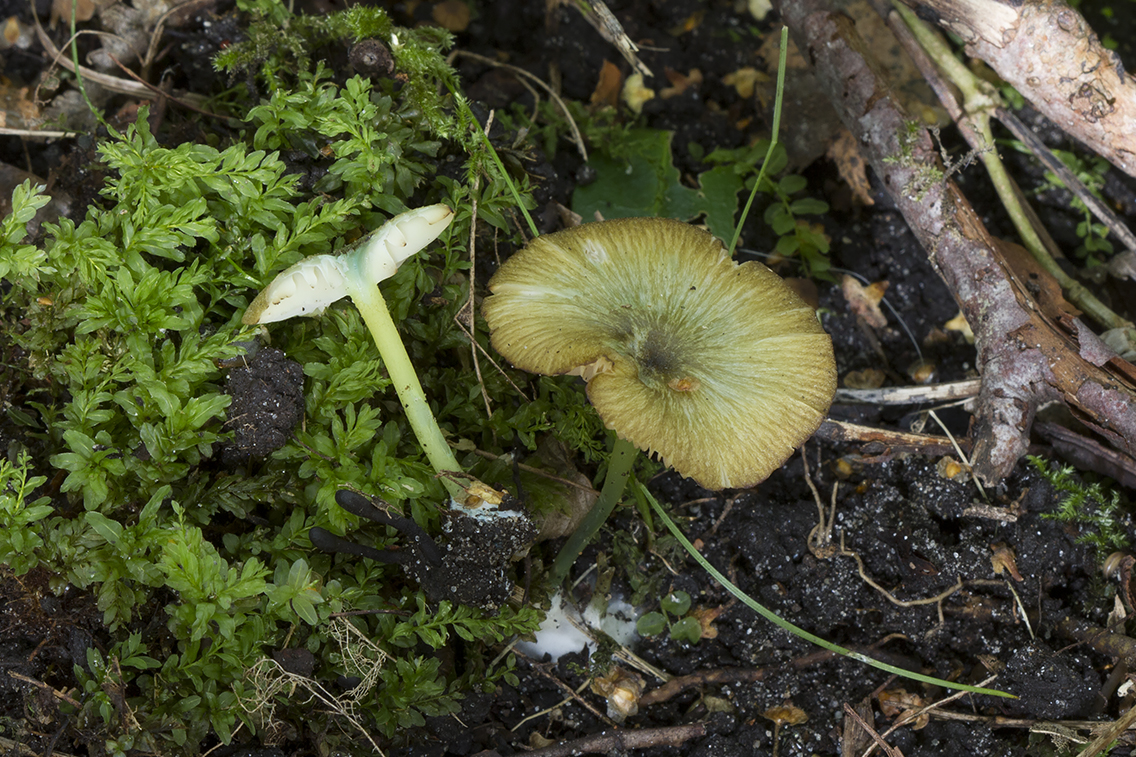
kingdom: Fungi
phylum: Basidiomycota
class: Agaricomycetes
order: Agaricales
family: Entolomataceae
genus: Entoloma
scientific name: Entoloma incanum
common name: grøngul rødblad
